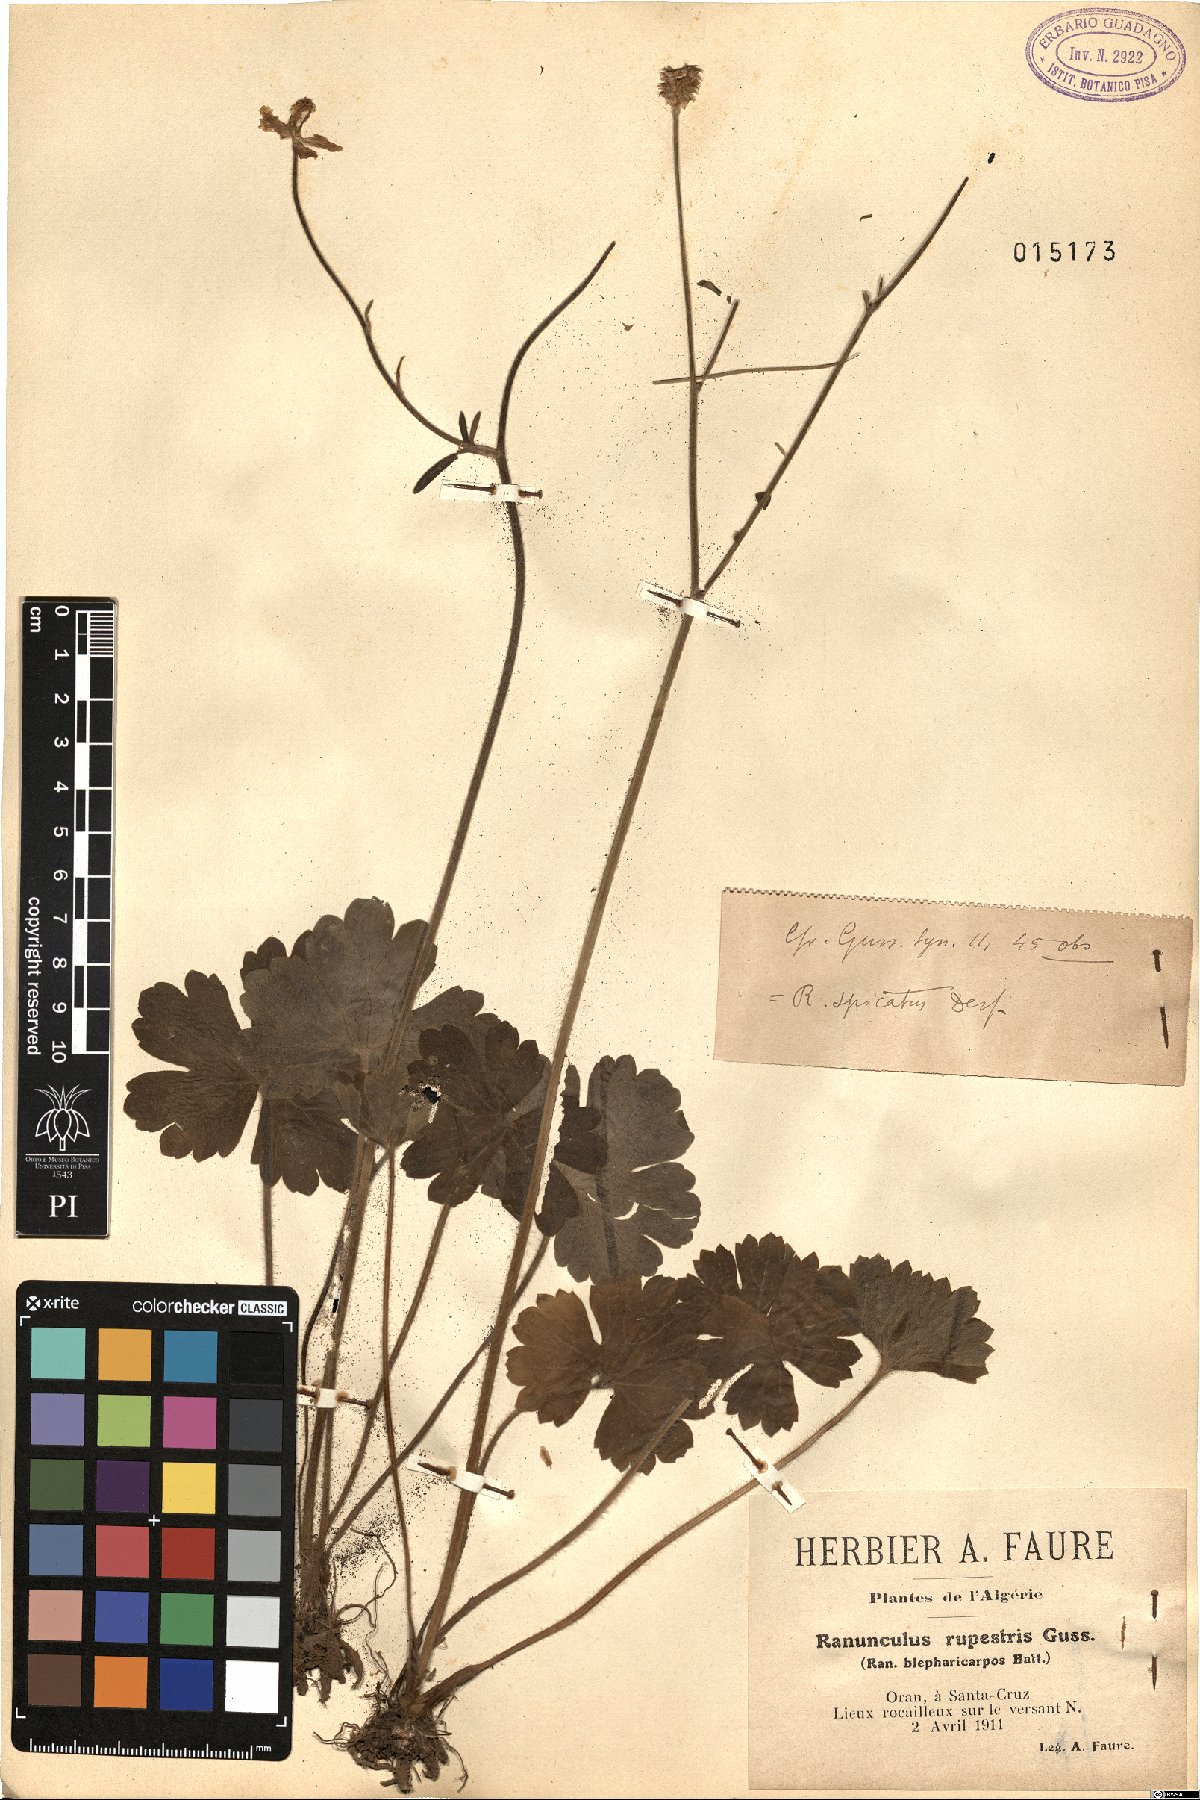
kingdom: Plantae
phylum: Tracheophyta
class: Magnoliopsida
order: Ranunculales
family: Ranunculaceae
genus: Ranunculus
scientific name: Ranunculus spicatus
